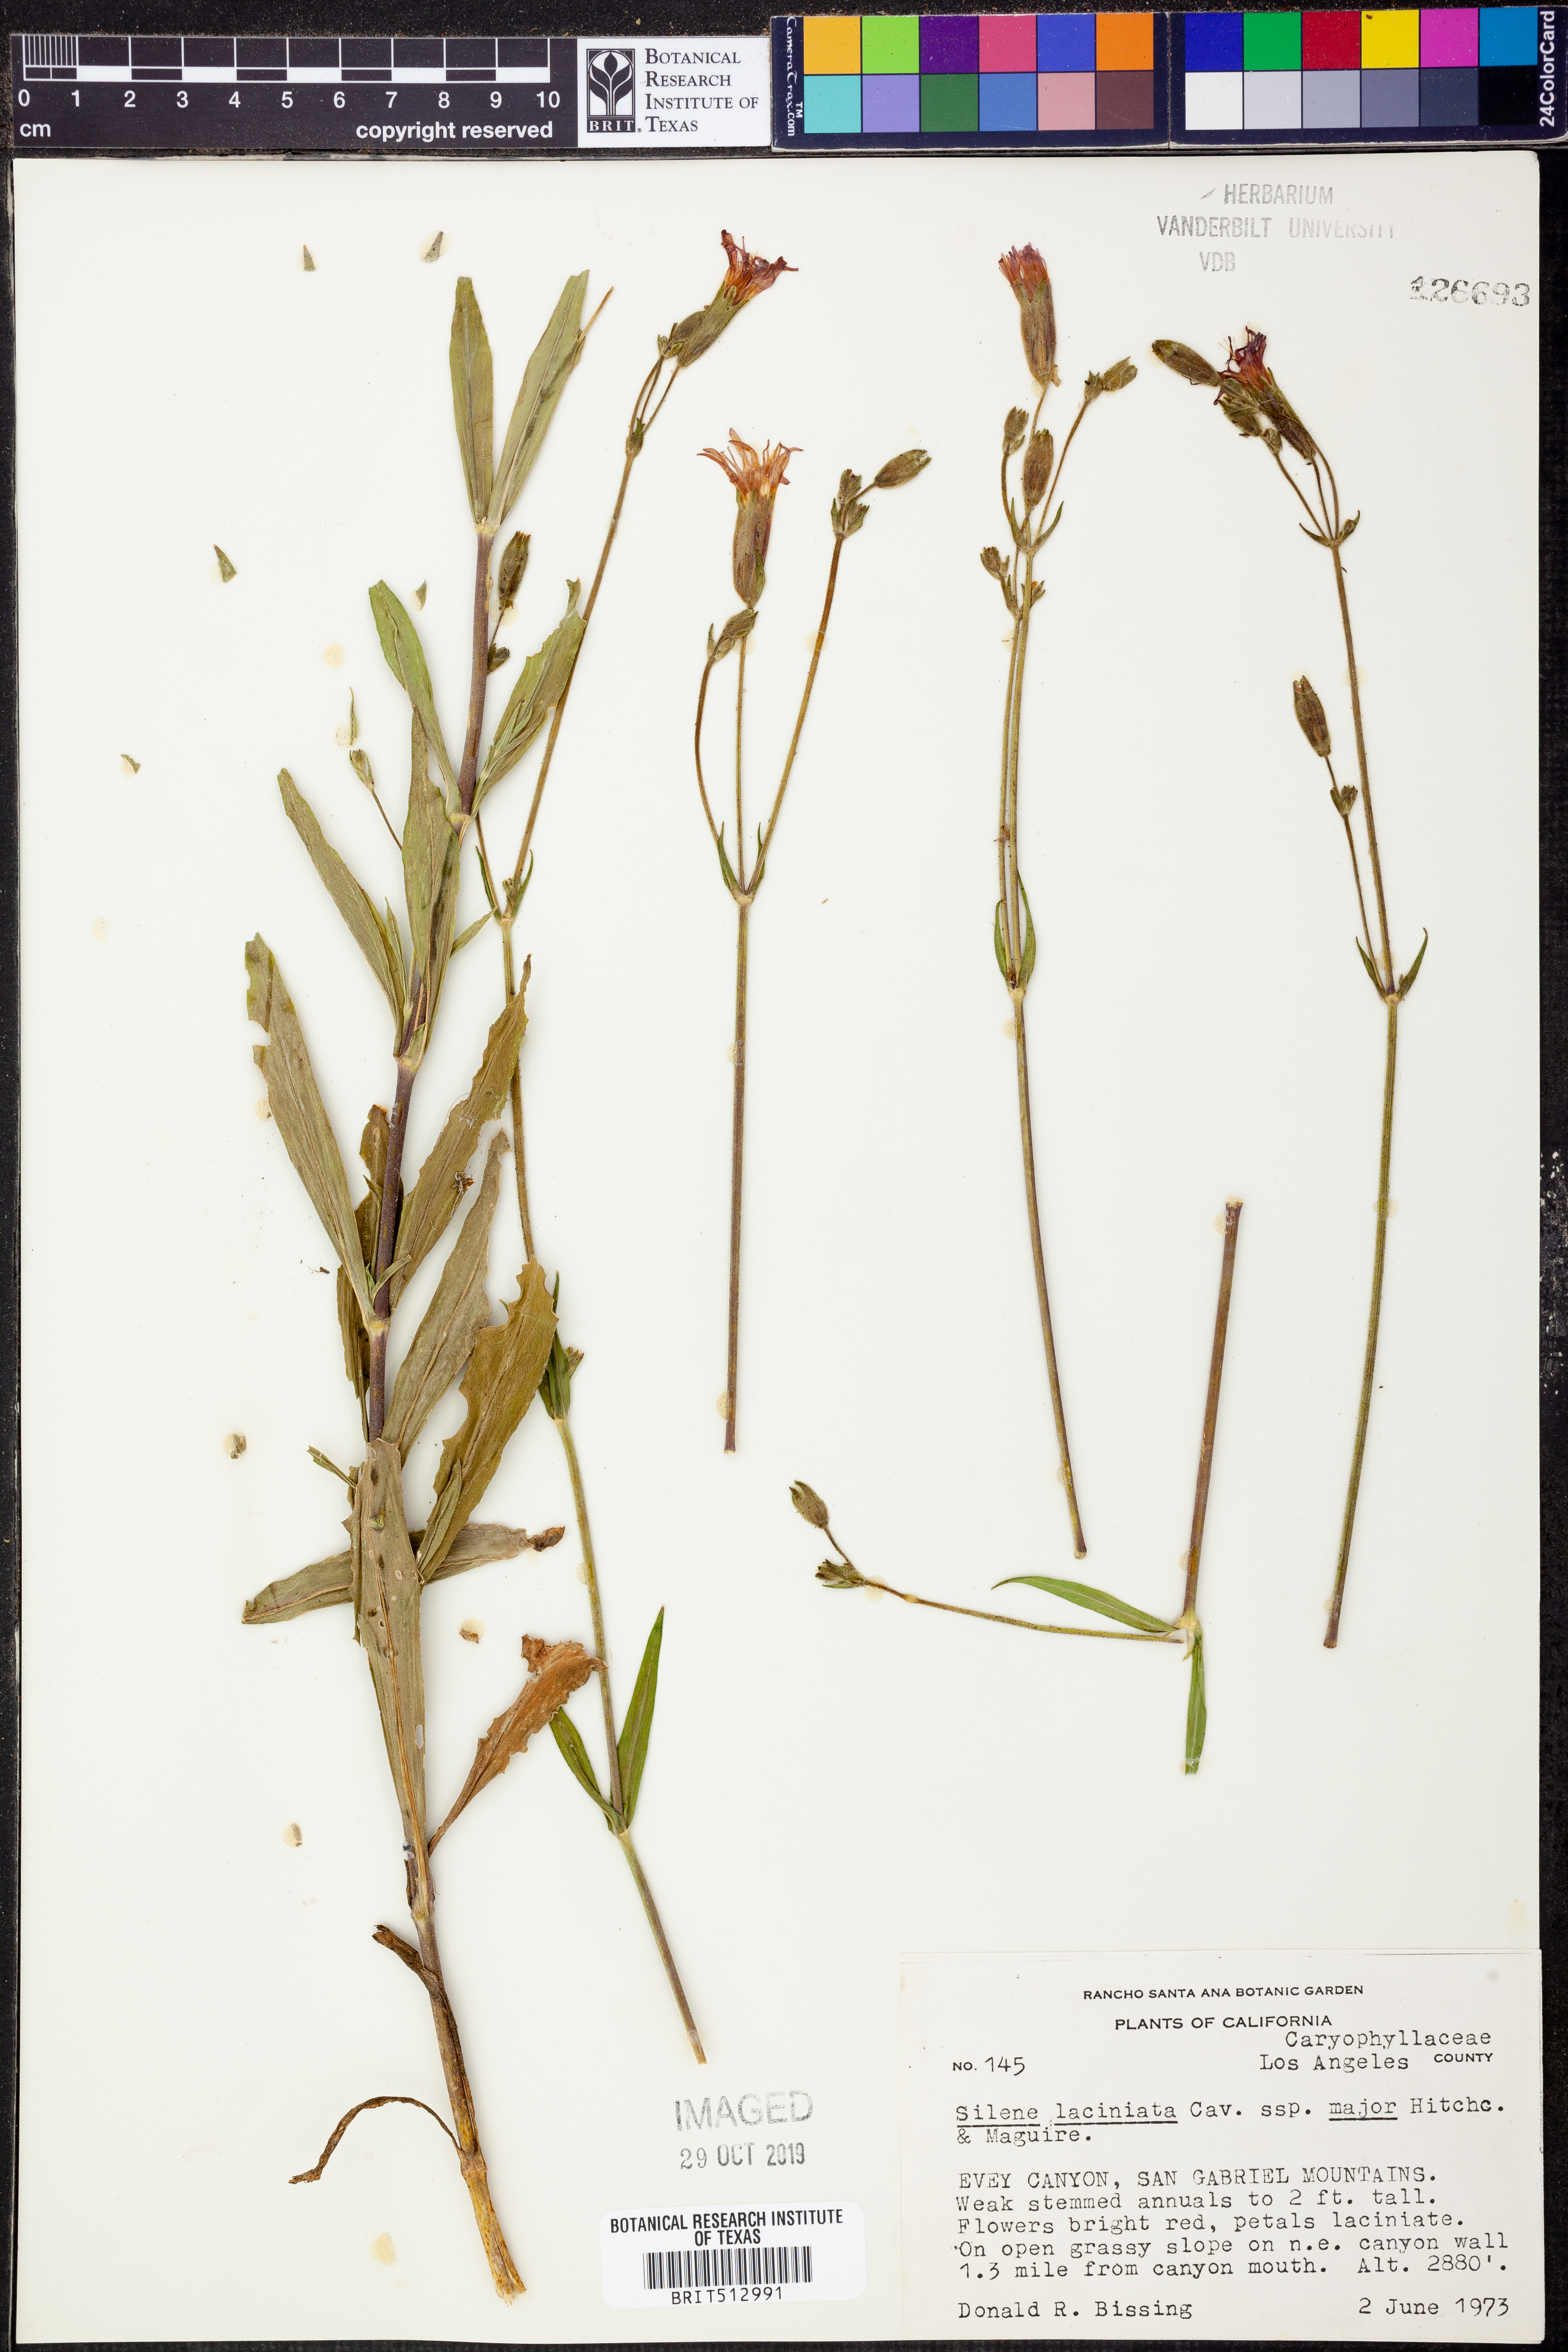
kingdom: Plantae
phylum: Tracheophyta
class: Magnoliopsida
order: Caryophyllales
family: Caryophyllaceae
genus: Silene
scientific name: Silene laciniata
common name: Indian-pink
